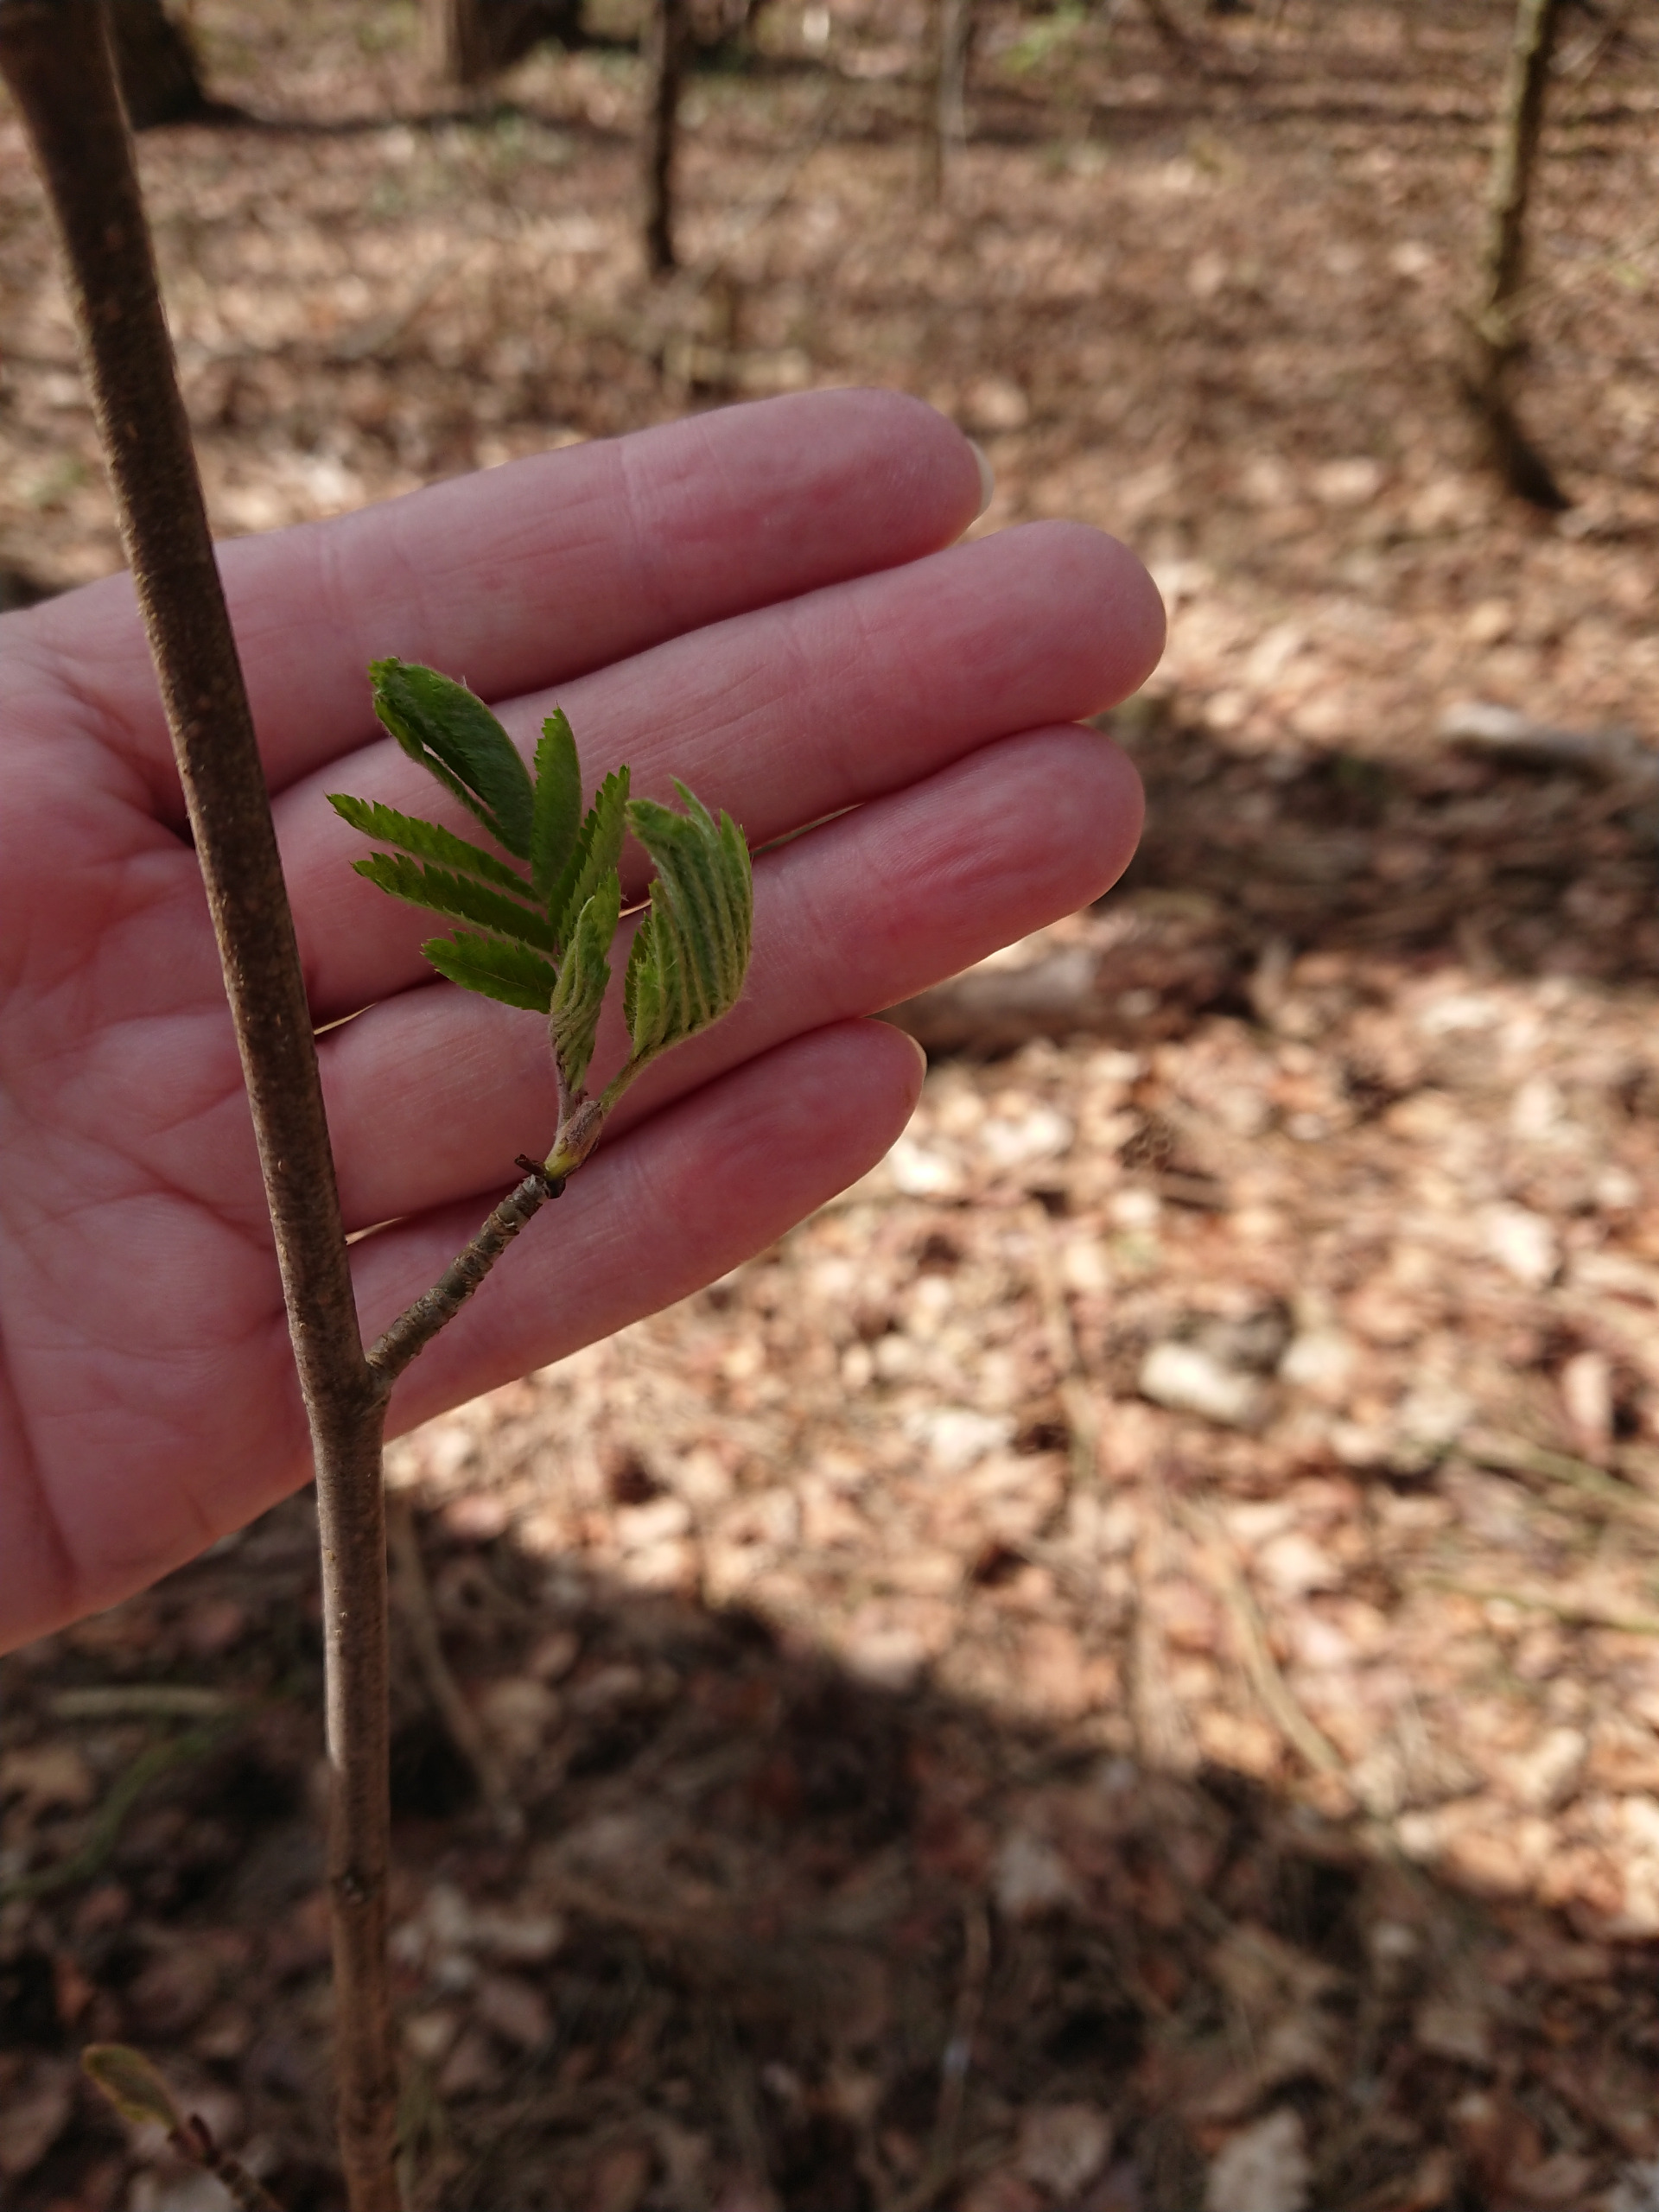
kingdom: Plantae
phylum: Tracheophyta
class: Magnoliopsida
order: Rosales
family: Rosaceae
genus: Sorbus
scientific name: Sorbus aucuparia
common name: Almindelig røn
